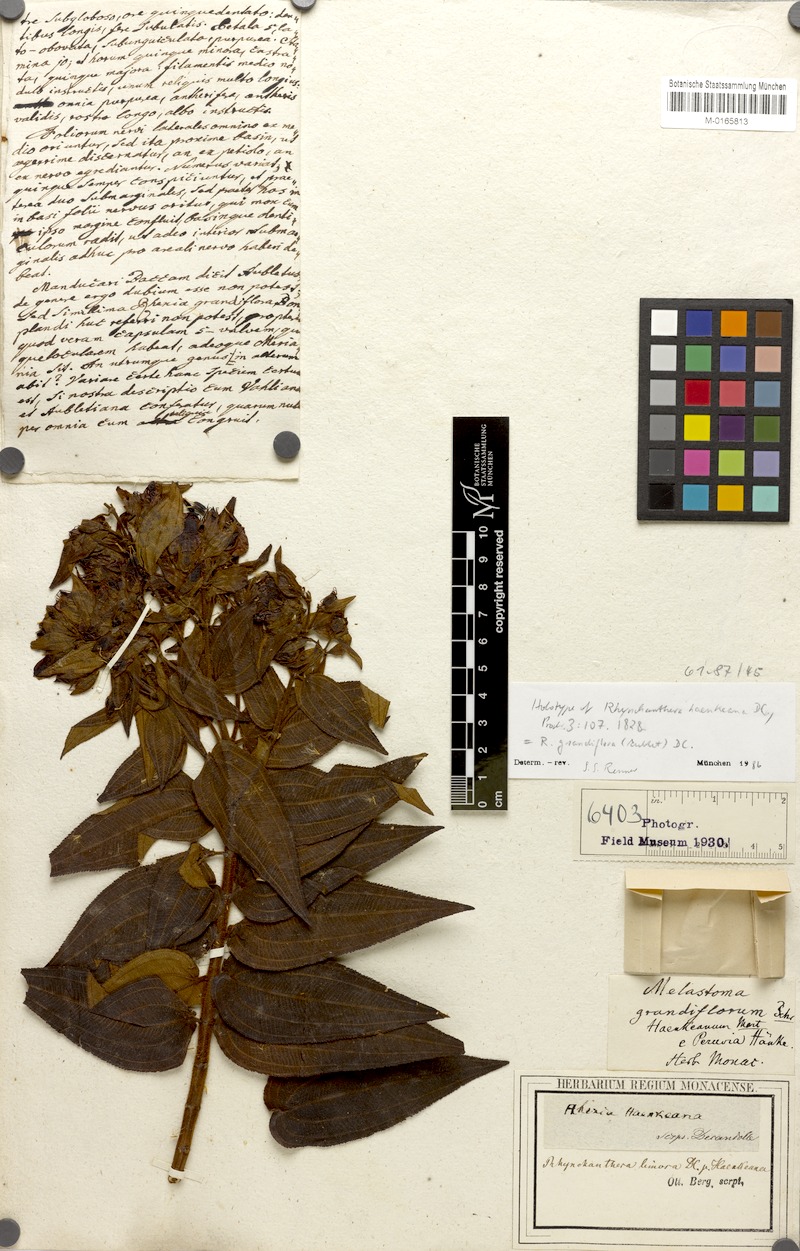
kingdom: Plantae
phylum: Tracheophyta
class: Magnoliopsida
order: Myrtales
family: Melastomataceae
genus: Rhynchanthera
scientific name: Rhynchanthera grandiflora
